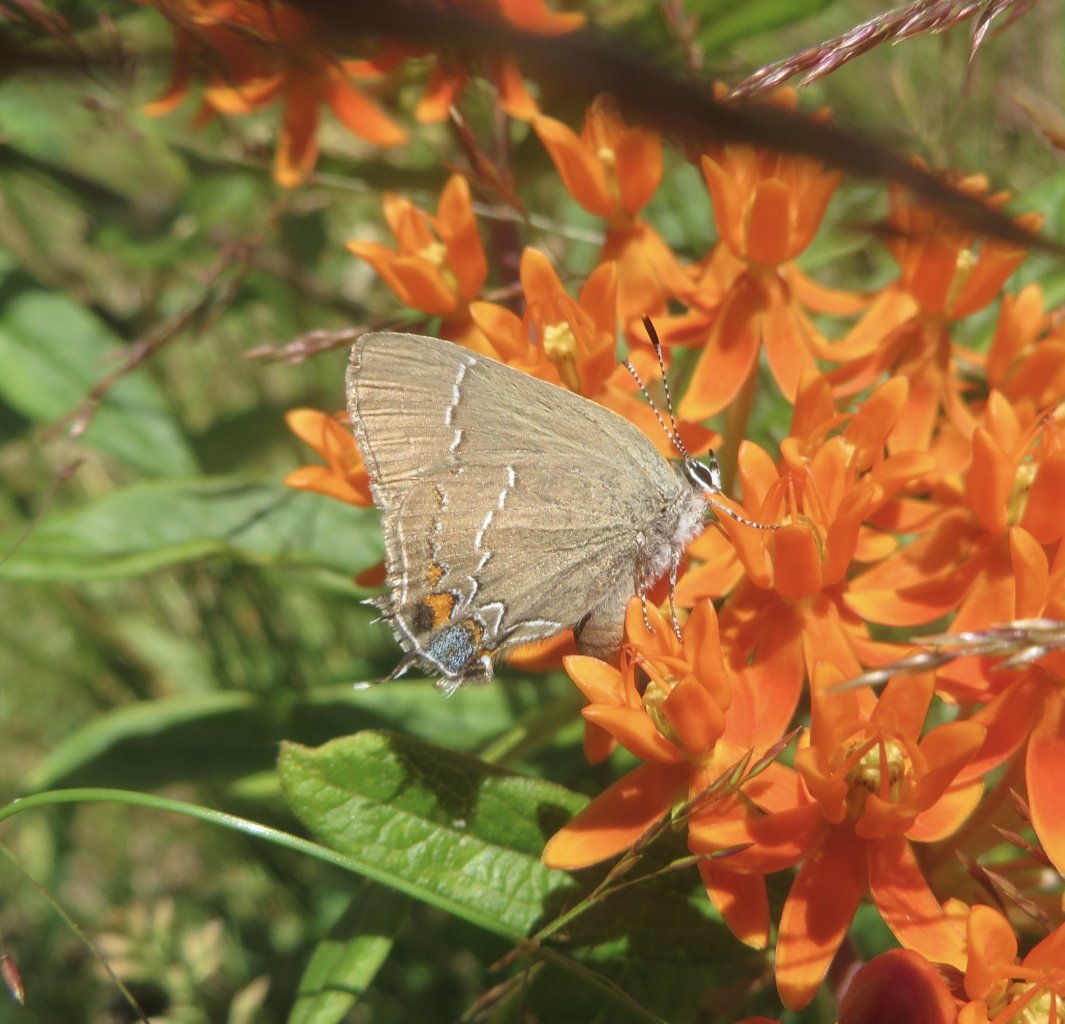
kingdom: Animalia
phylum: Arthropoda
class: Insecta
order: Lepidoptera
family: Lycaenidae
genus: Fixsenia
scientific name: Fixsenia favonius
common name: Oak Hairstreak
